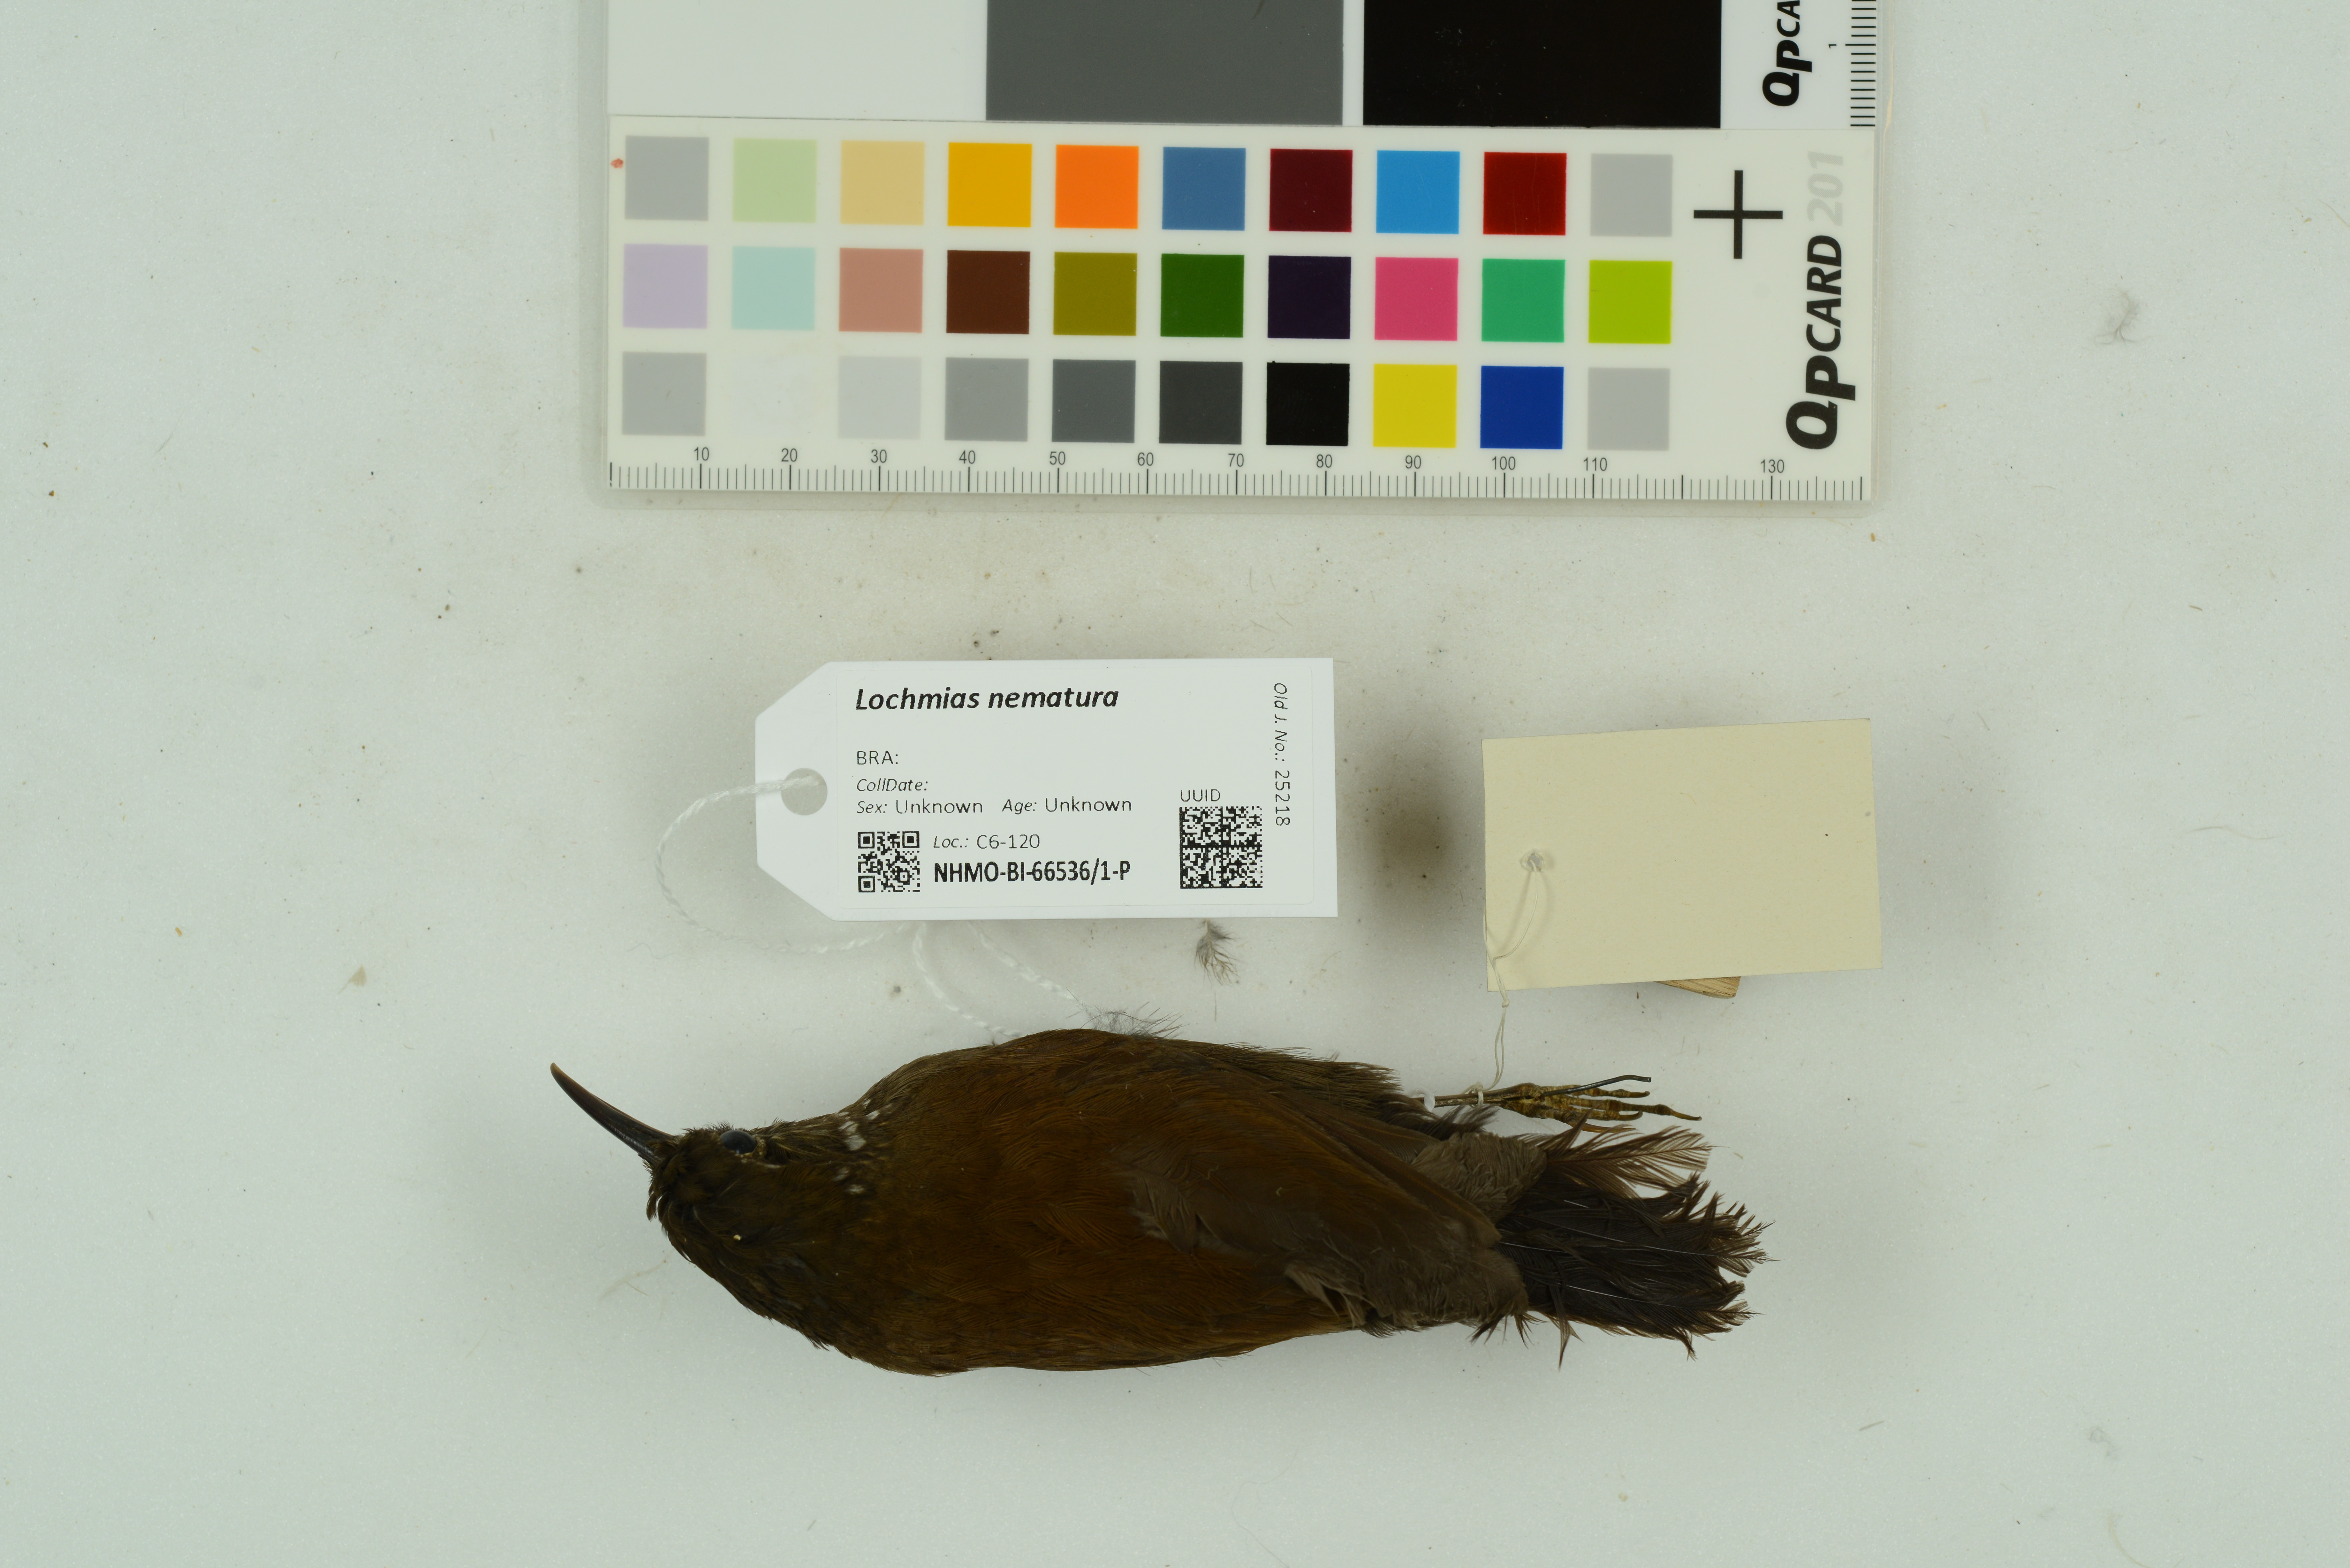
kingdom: Animalia
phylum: Chordata
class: Aves
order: Passeriformes
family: Furnariidae
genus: Lochmias
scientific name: Lochmias nematura
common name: Sharp-tailed streamcreeper
